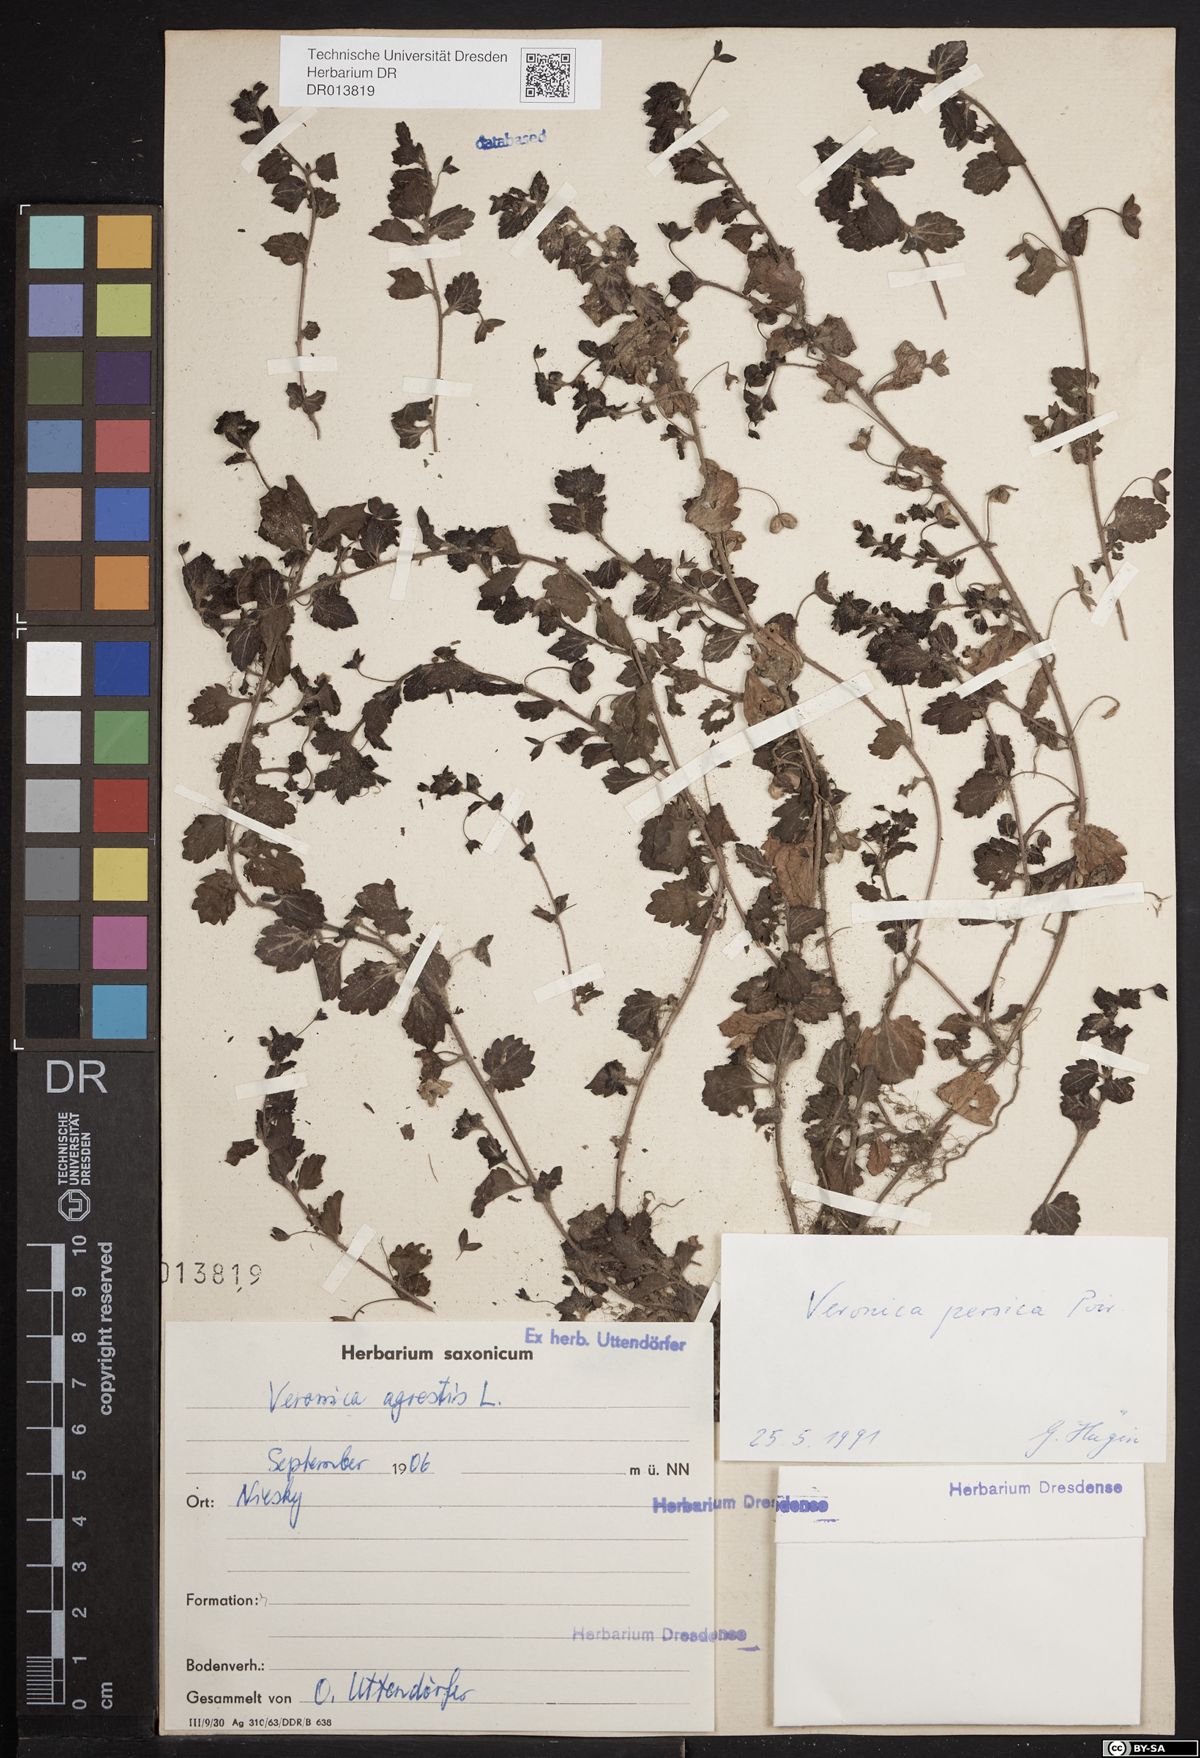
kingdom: Plantae
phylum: Tracheophyta
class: Magnoliopsida
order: Lamiales
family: Plantaginaceae
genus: Veronica
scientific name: Veronica persica
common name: Common field-speedwell
